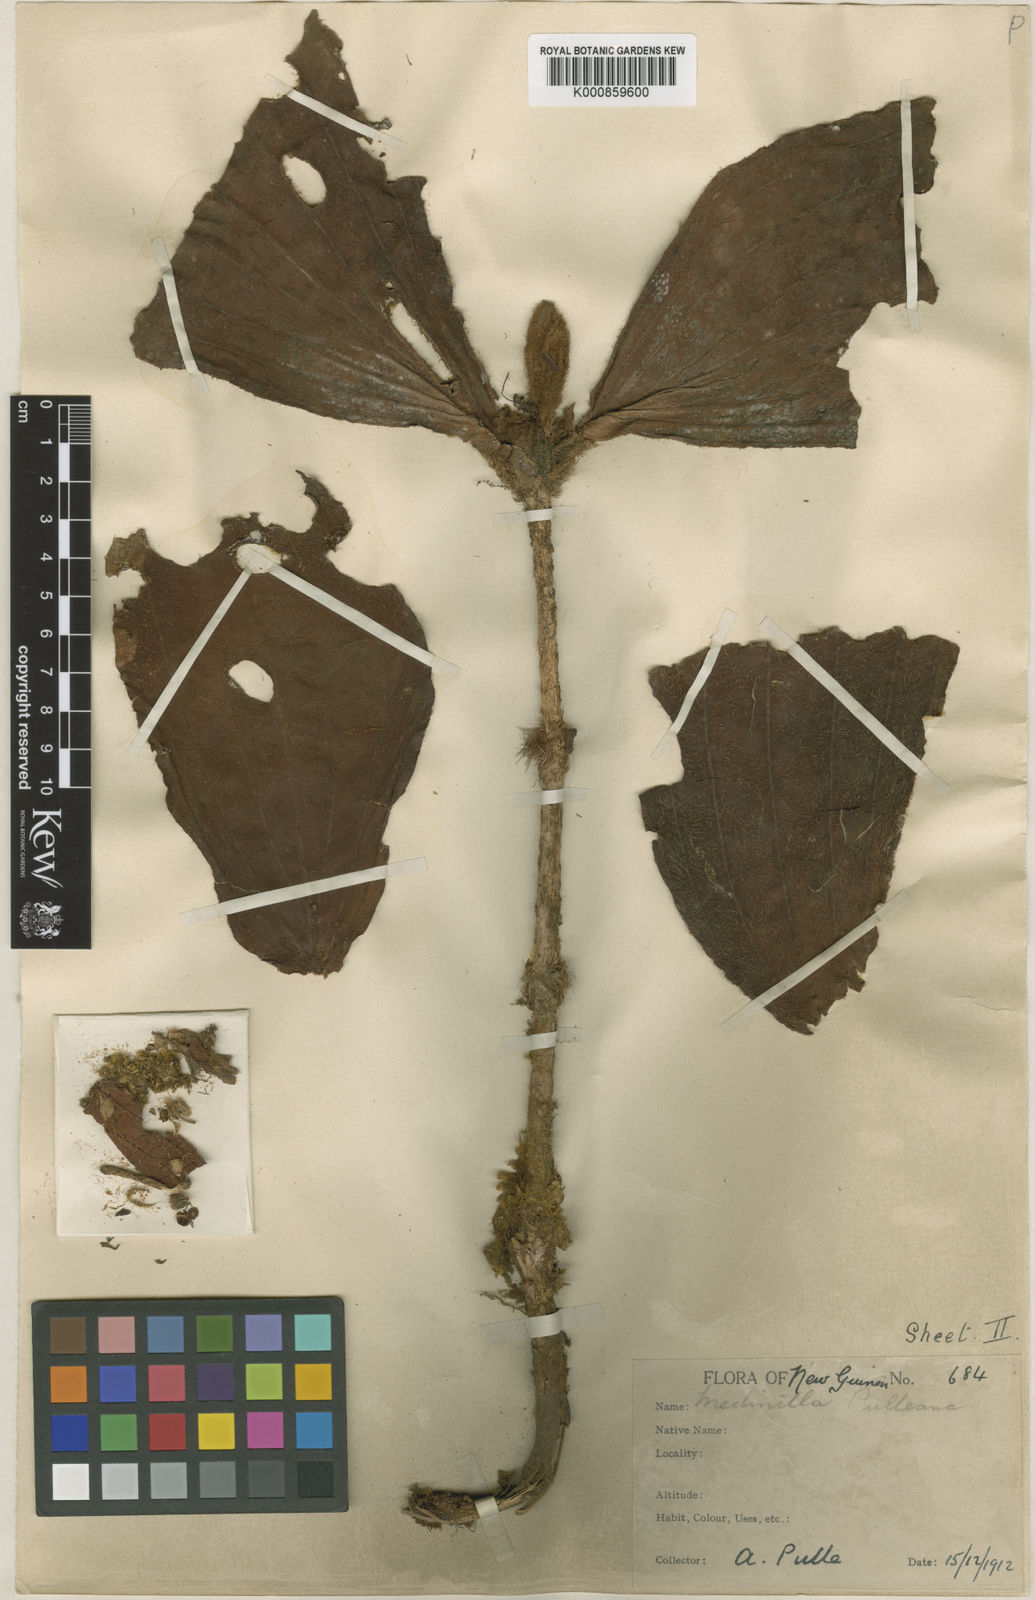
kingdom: Plantae
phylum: Tracheophyta
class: Magnoliopsida
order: Myrtales
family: Melastomataceae
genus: Medinilla
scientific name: Medinilla pulleana
